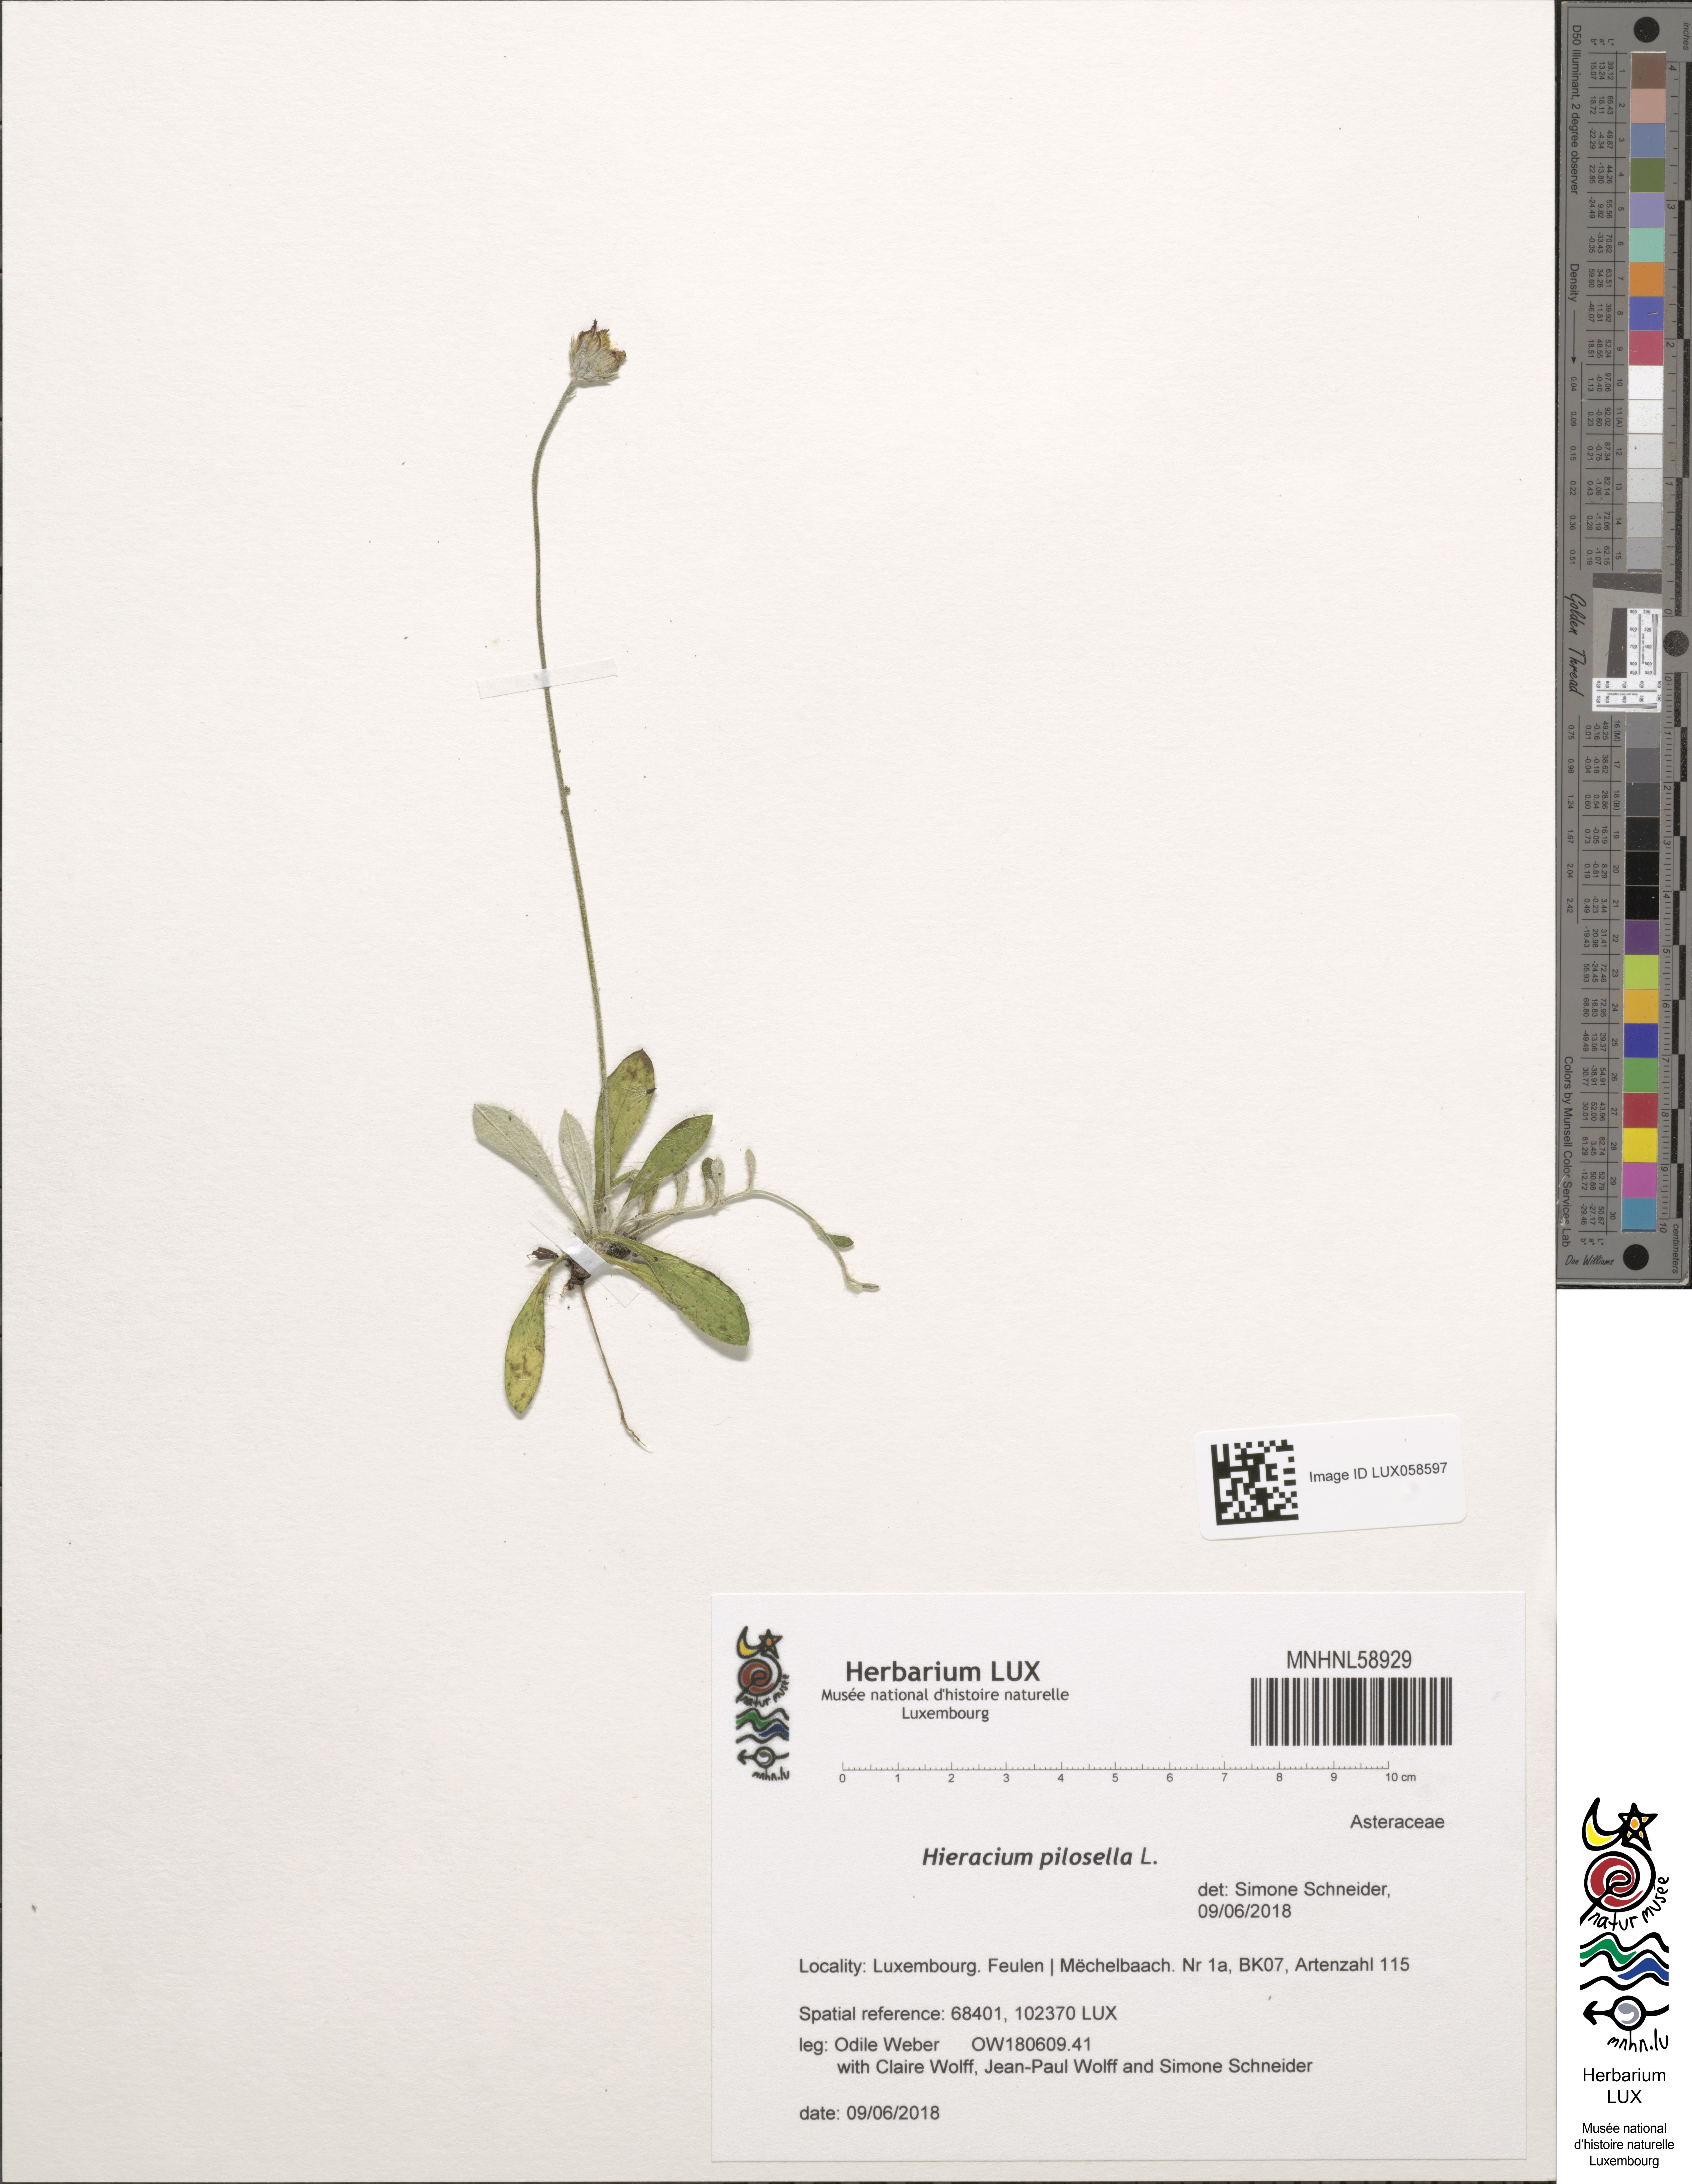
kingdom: Plantae
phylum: Tracheophyta
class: Magnoliopsida
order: Asterales
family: Asteraceae
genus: Pilosella
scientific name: Pilosella officinarum
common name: Mouse-ear hawkweed
